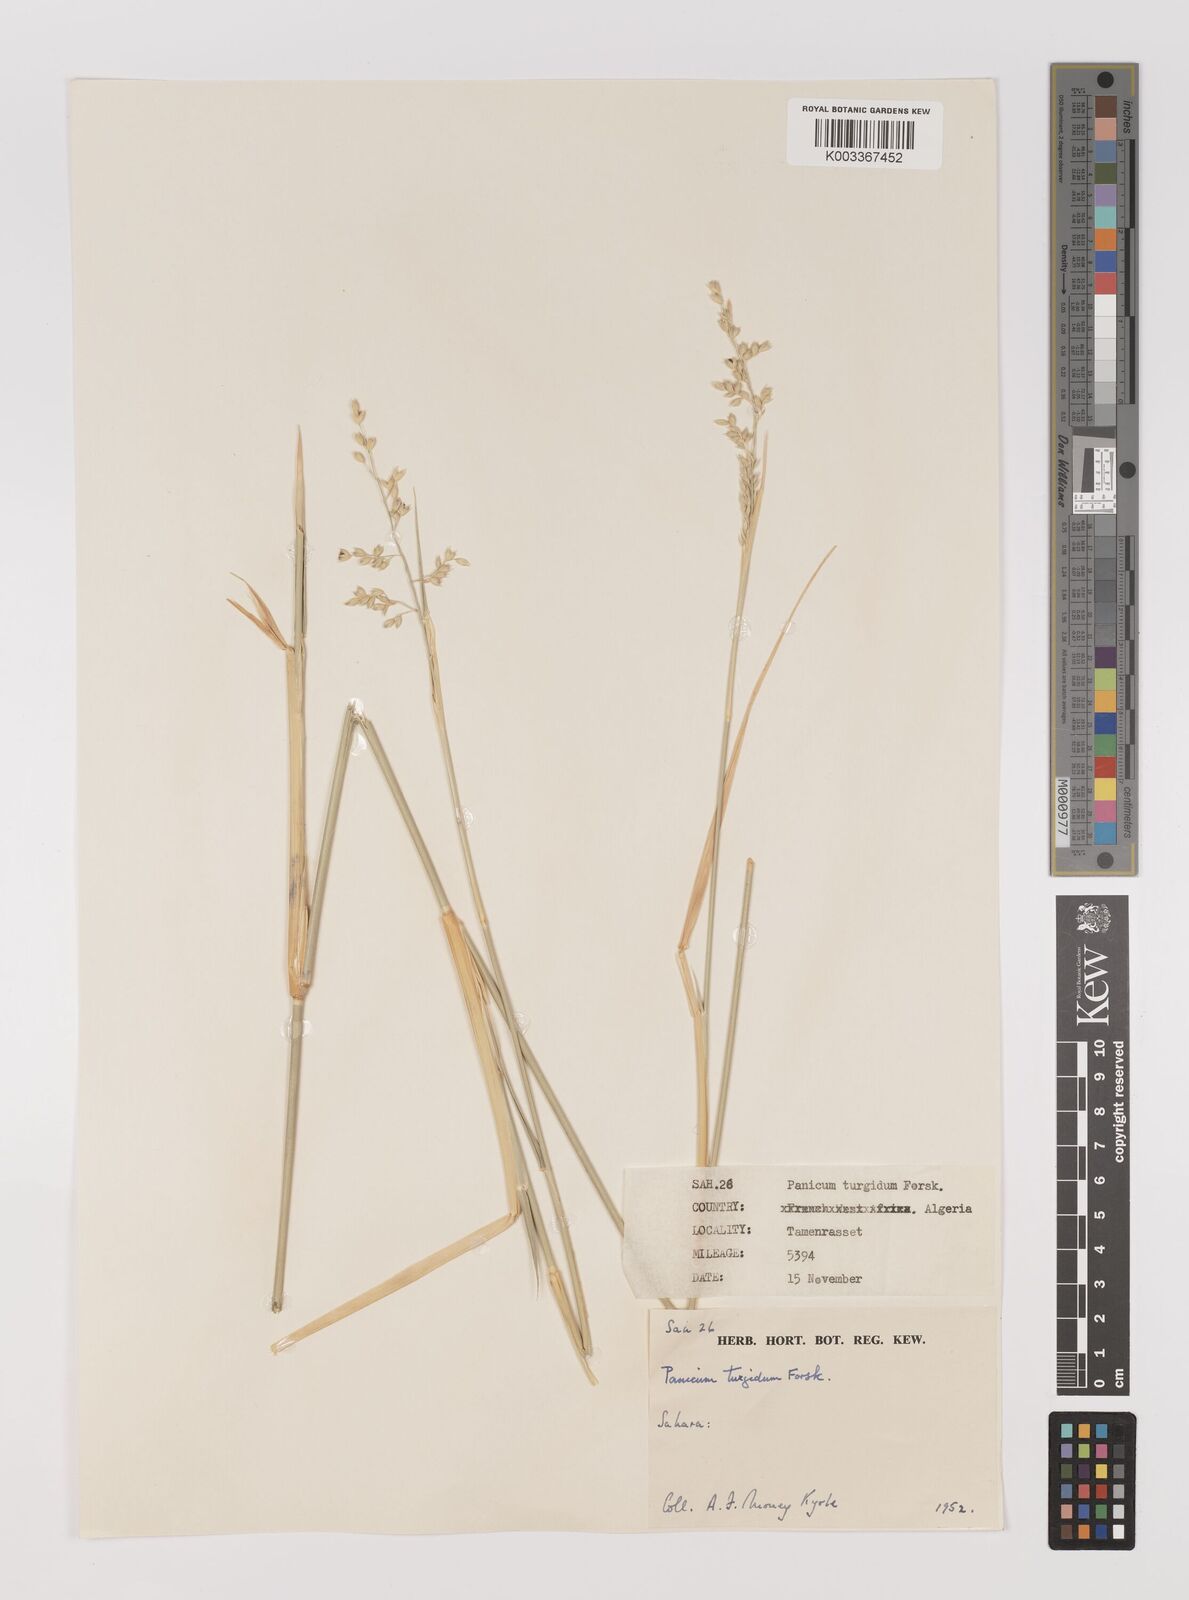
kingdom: Plantae
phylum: Tracheophyta
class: Liliopsida
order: Poales
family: Poaceae
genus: Panicum
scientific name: Panicum turgidum
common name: Desert grass
